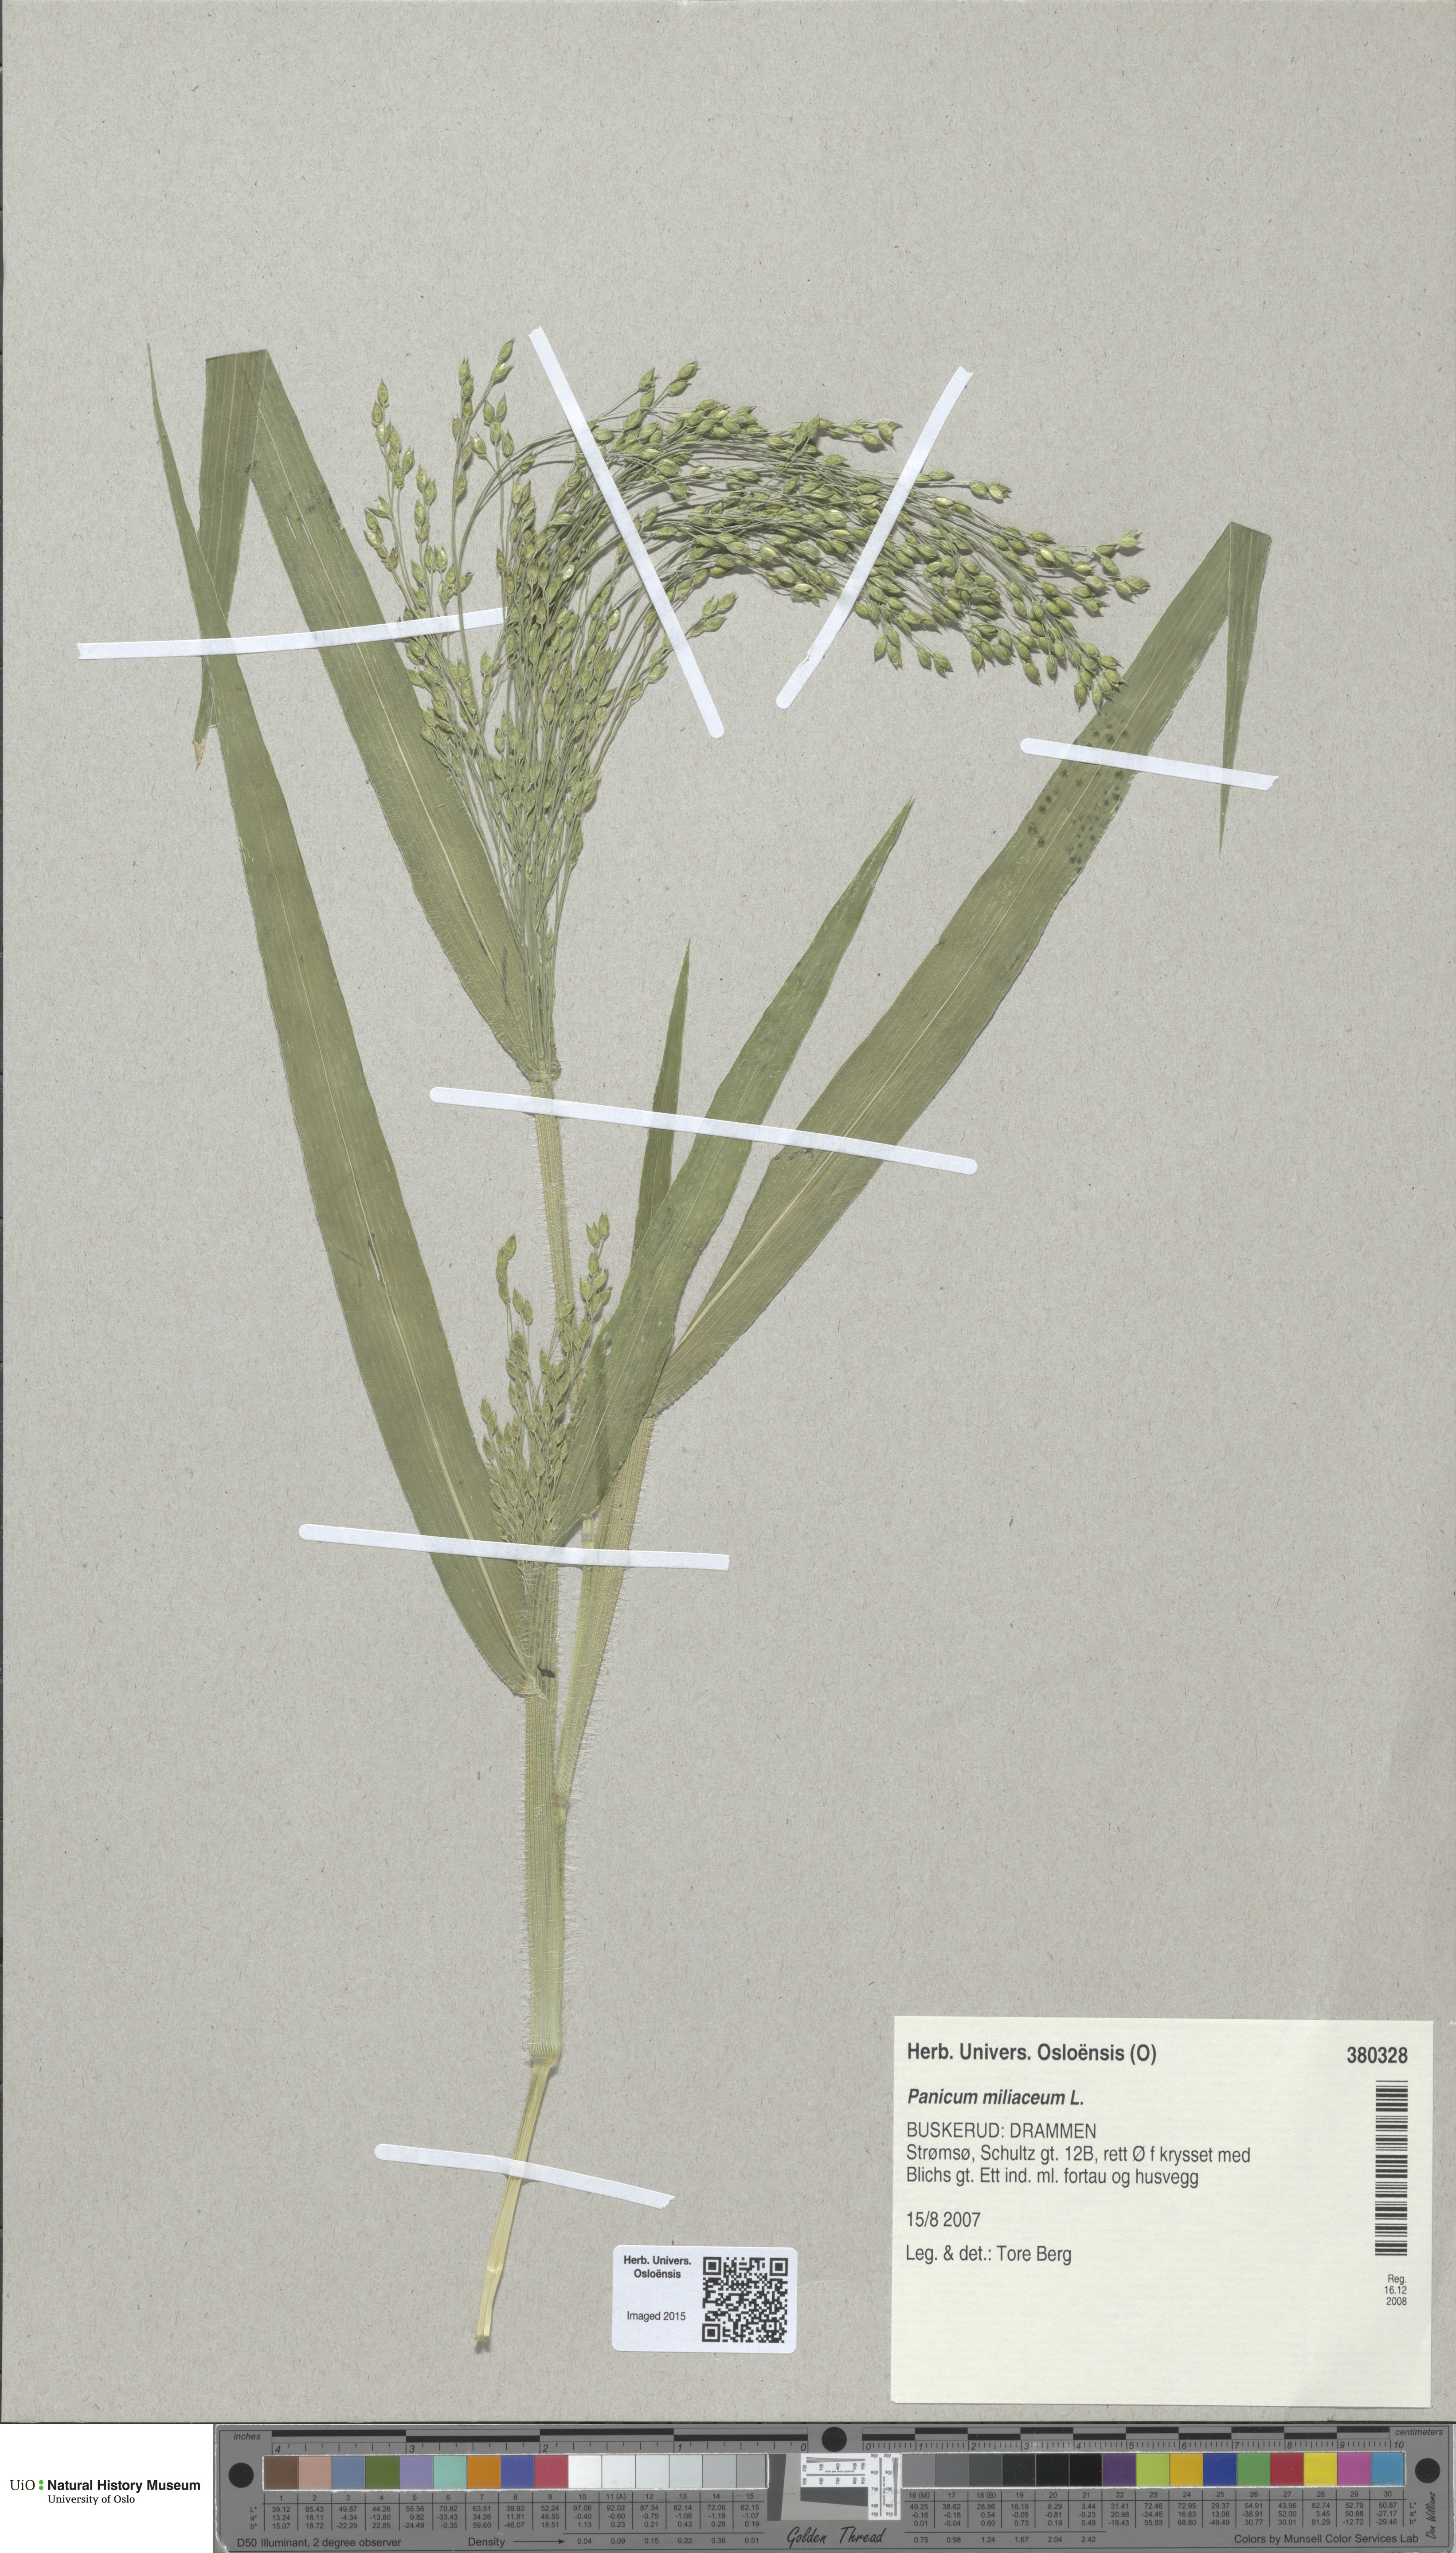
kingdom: Plantae
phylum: Tracheophyta
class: Liliopsida
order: Poales
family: Poaceae
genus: Panicum
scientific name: Panicum miliaceum
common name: Common millet
